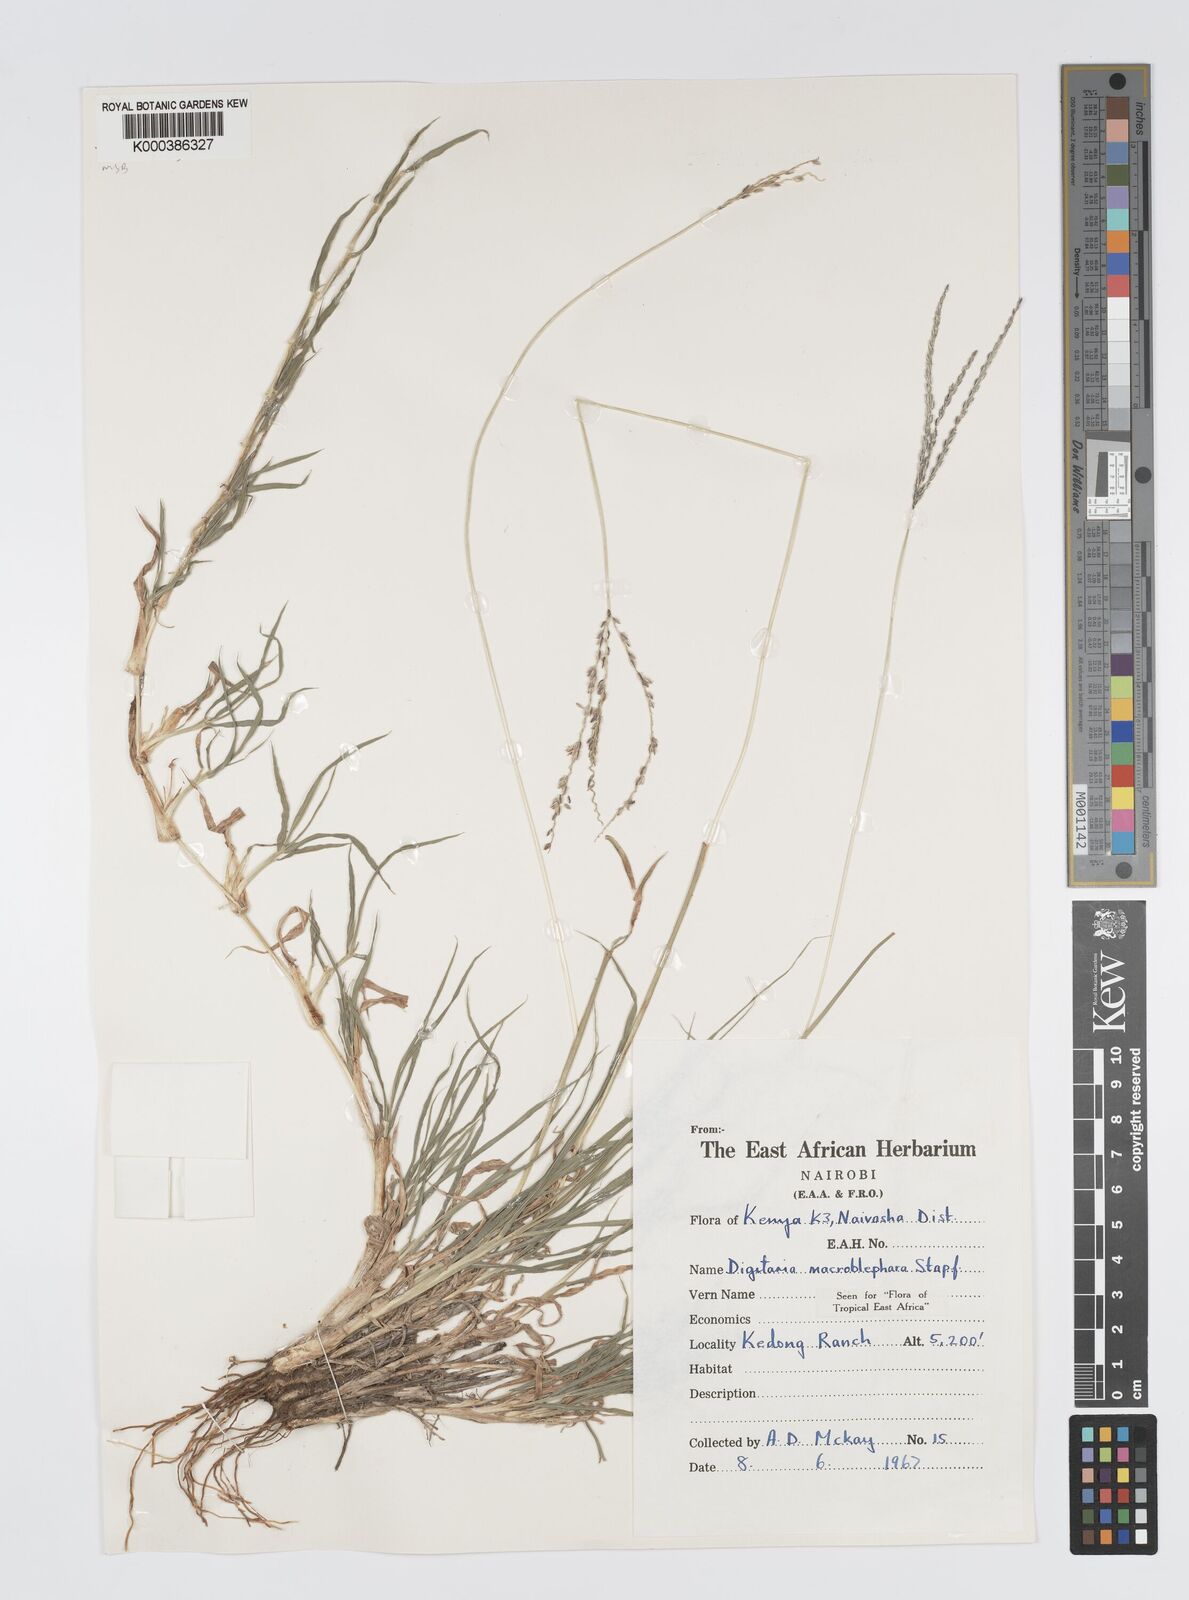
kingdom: Plantae
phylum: Tracheophyta
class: Liliopsida
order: Poales
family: Poaceae
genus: Digitaria
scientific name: Digitaria macroblephara
